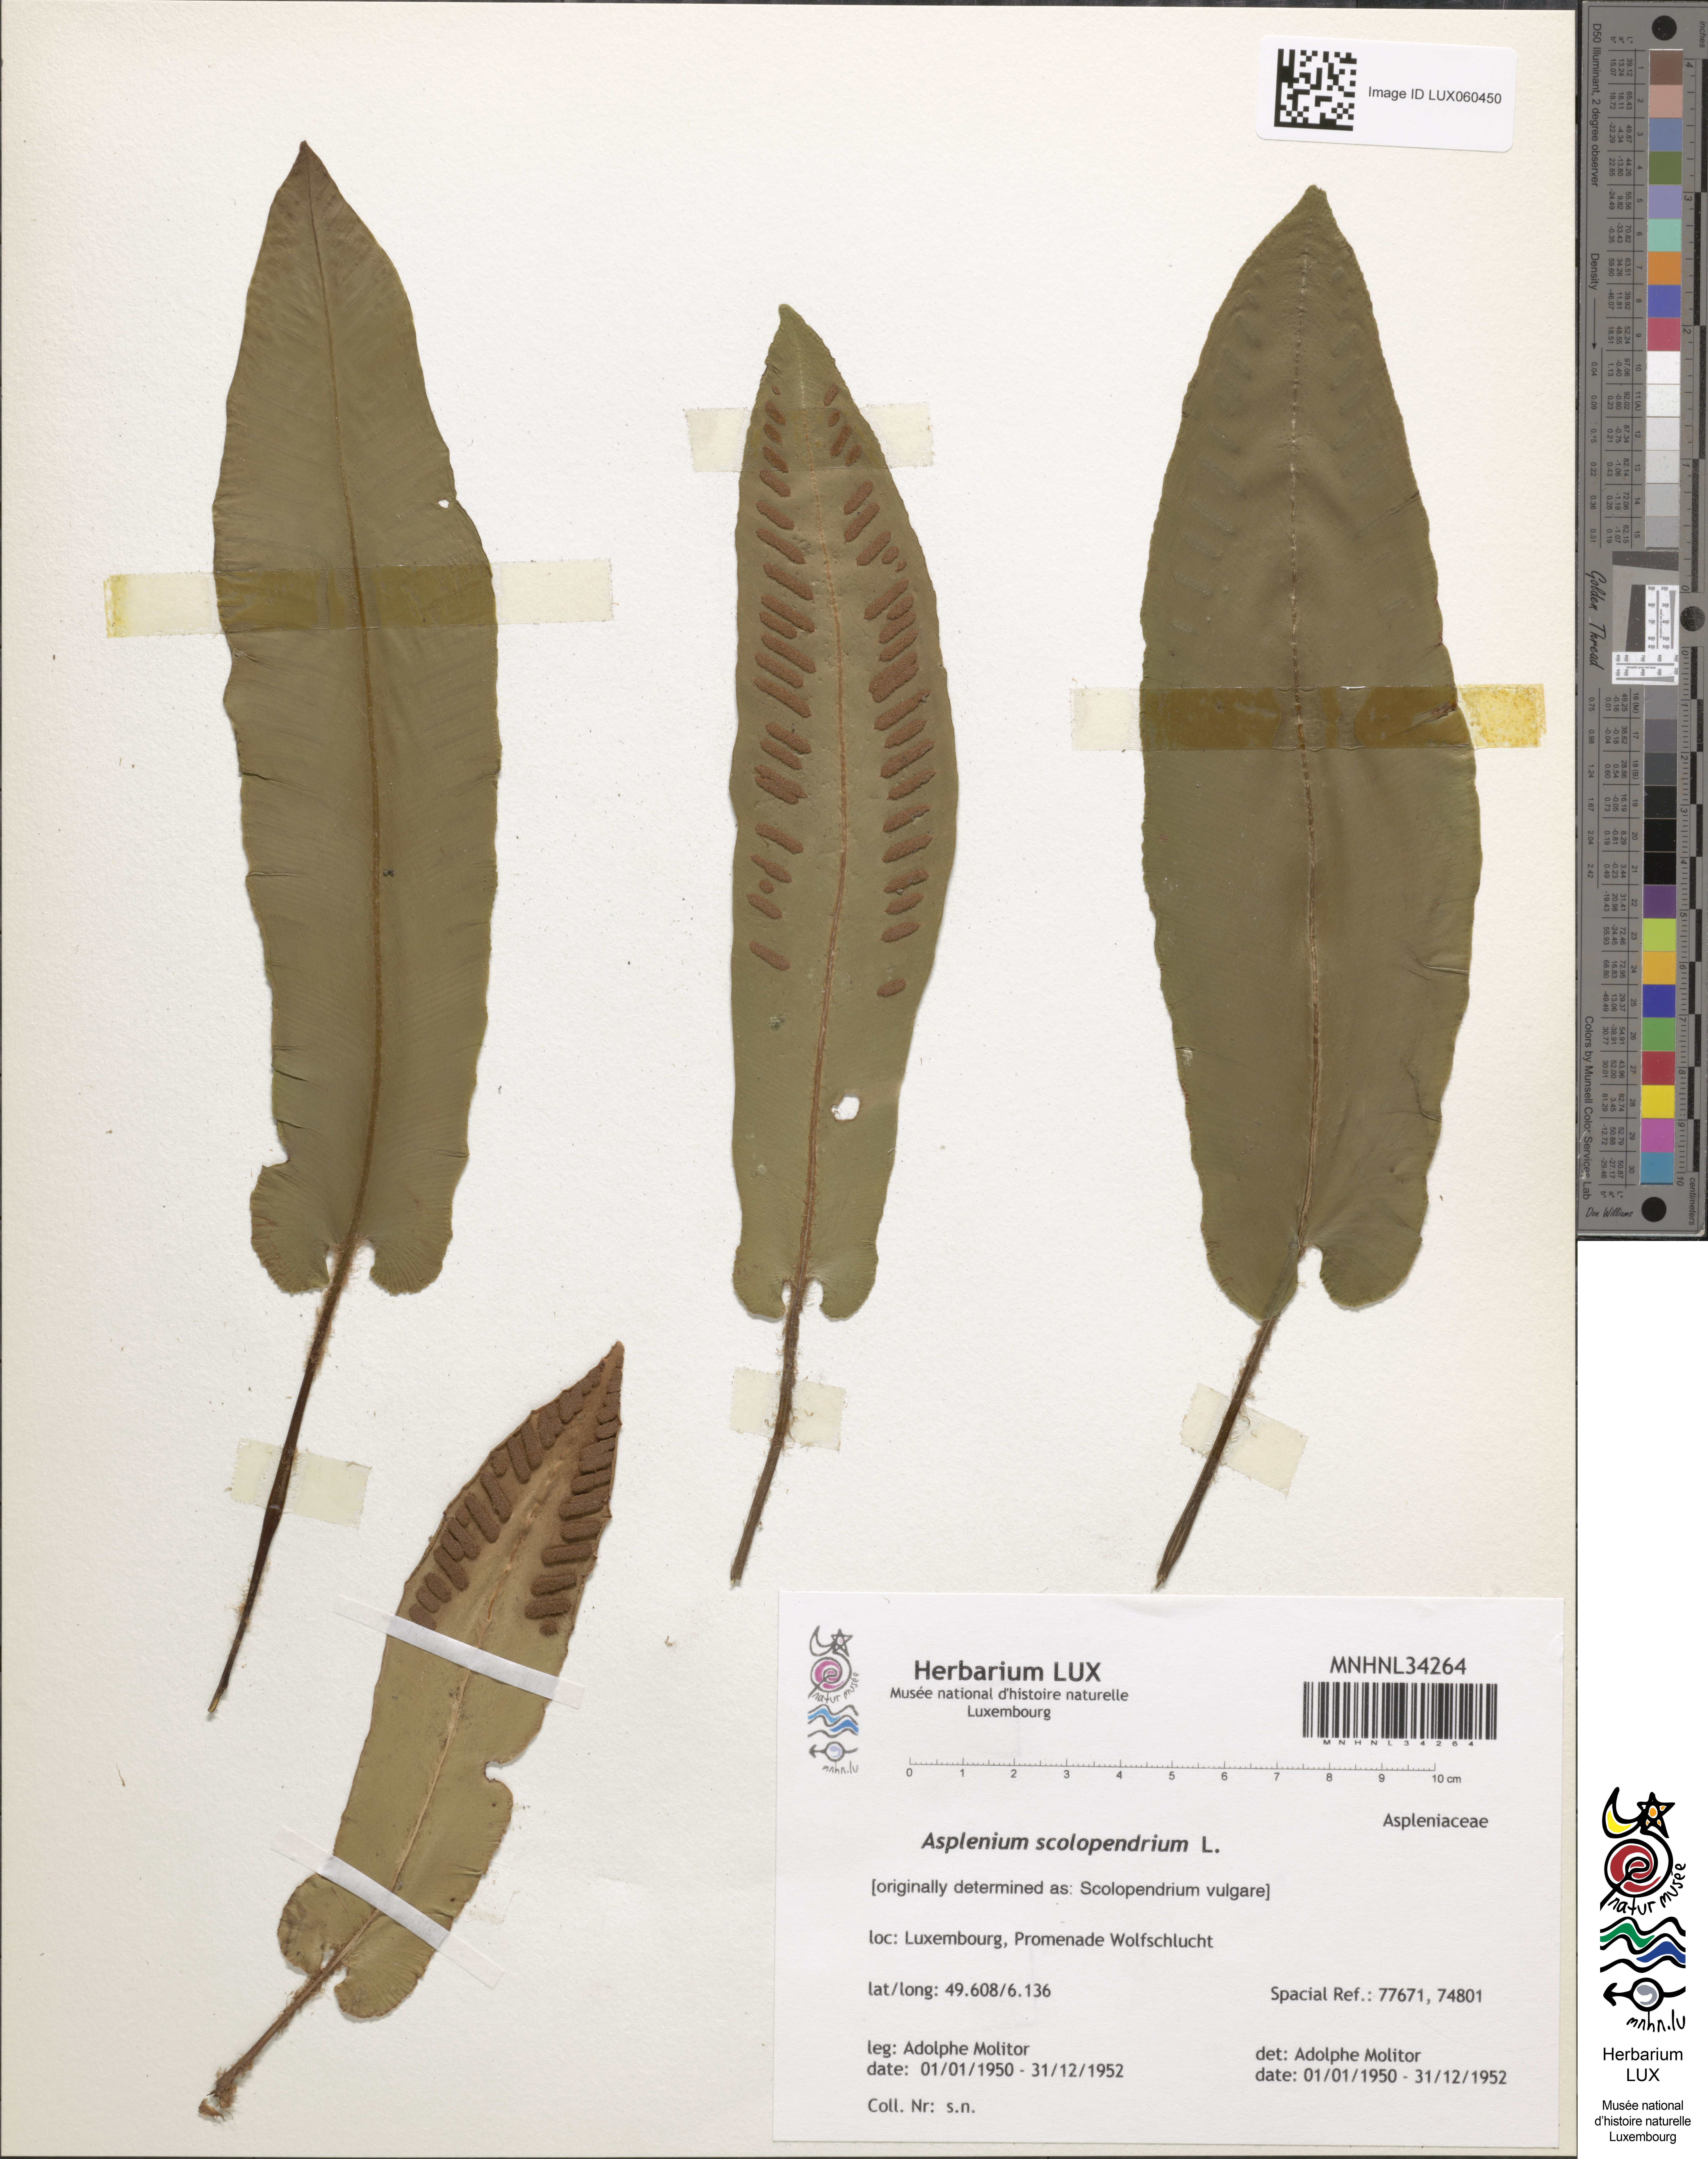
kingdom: Plantae
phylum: Tracheophyta
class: Polypodiopsida
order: Polypodiales
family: Aspleniaceae
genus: Asplenium
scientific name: Asplenium scolopendrium
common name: Hart's-tongue fern
